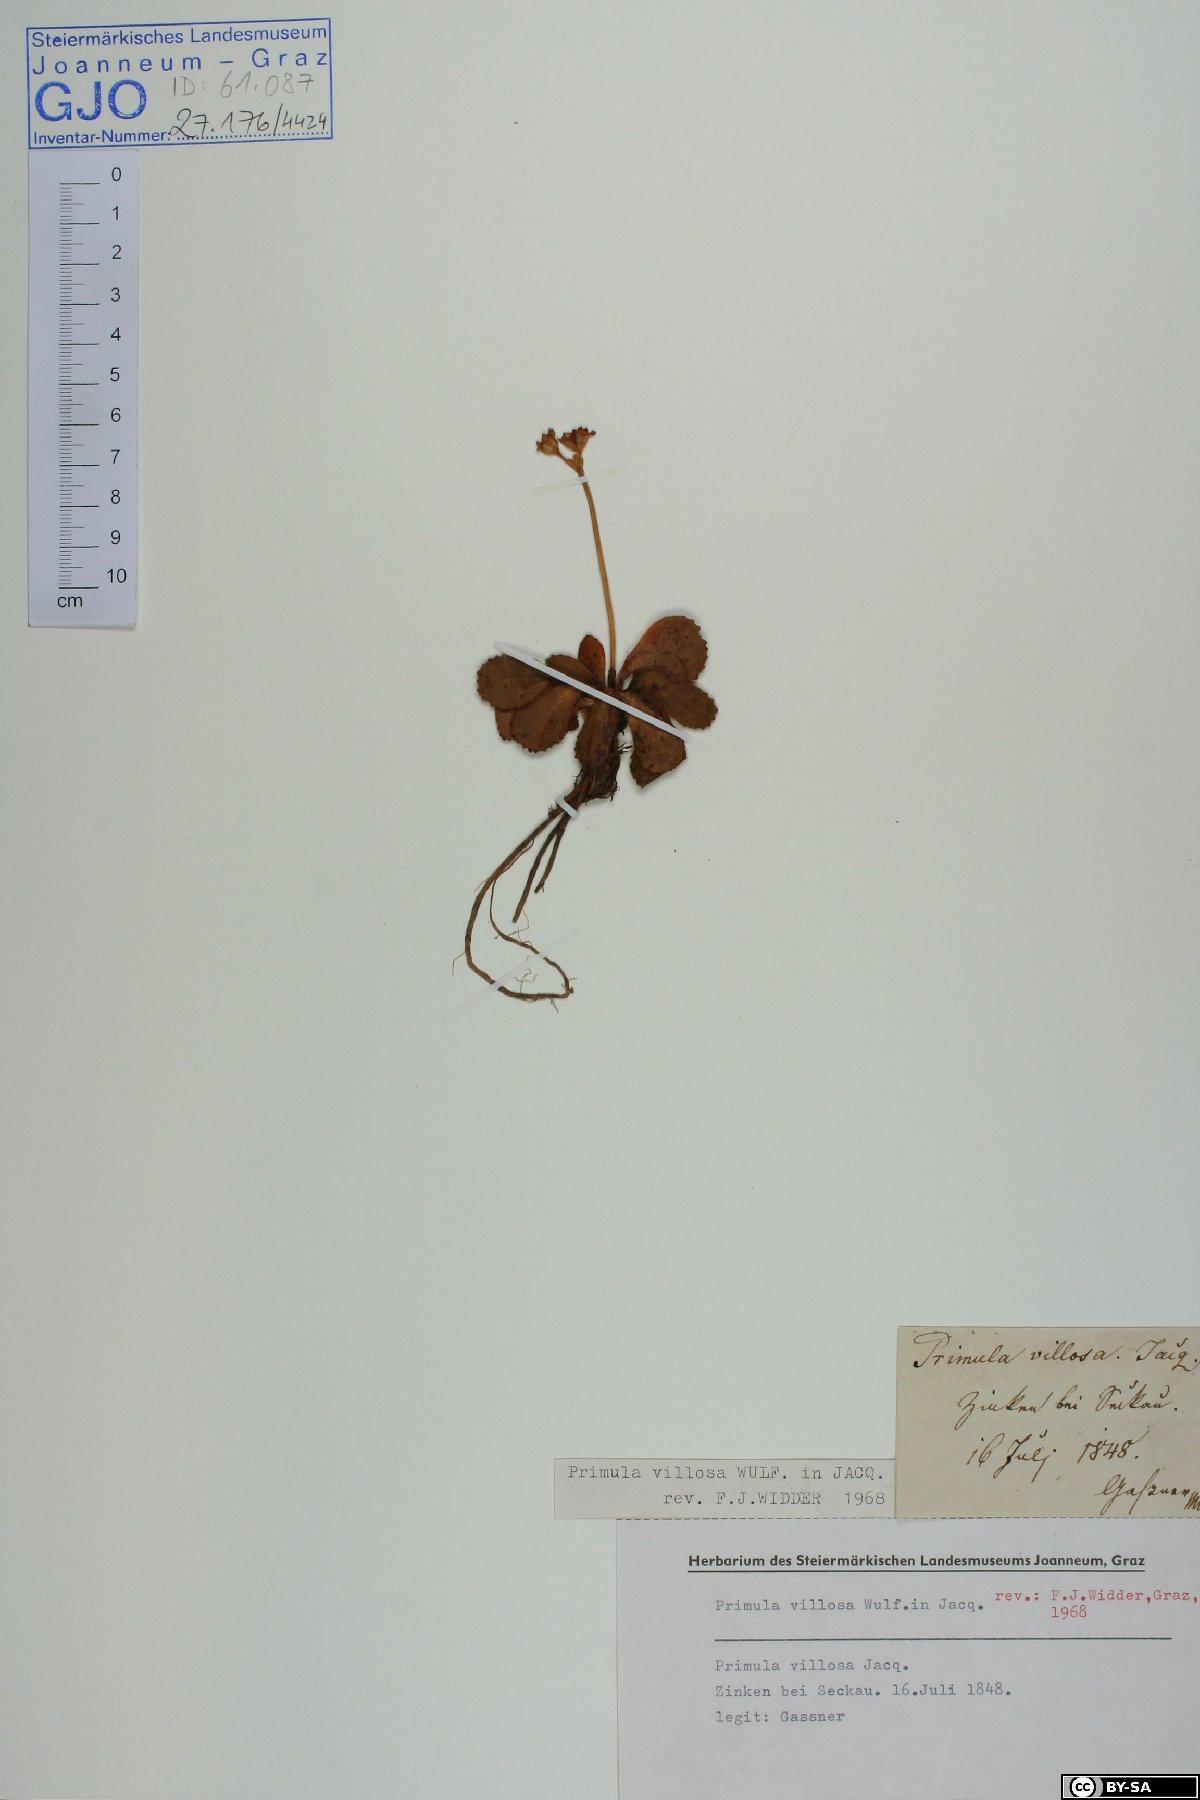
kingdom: Plantae
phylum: Tracheophyta
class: Magnoliopsida
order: Ericales
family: Primulaceae
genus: Primula
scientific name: Primula villosa
